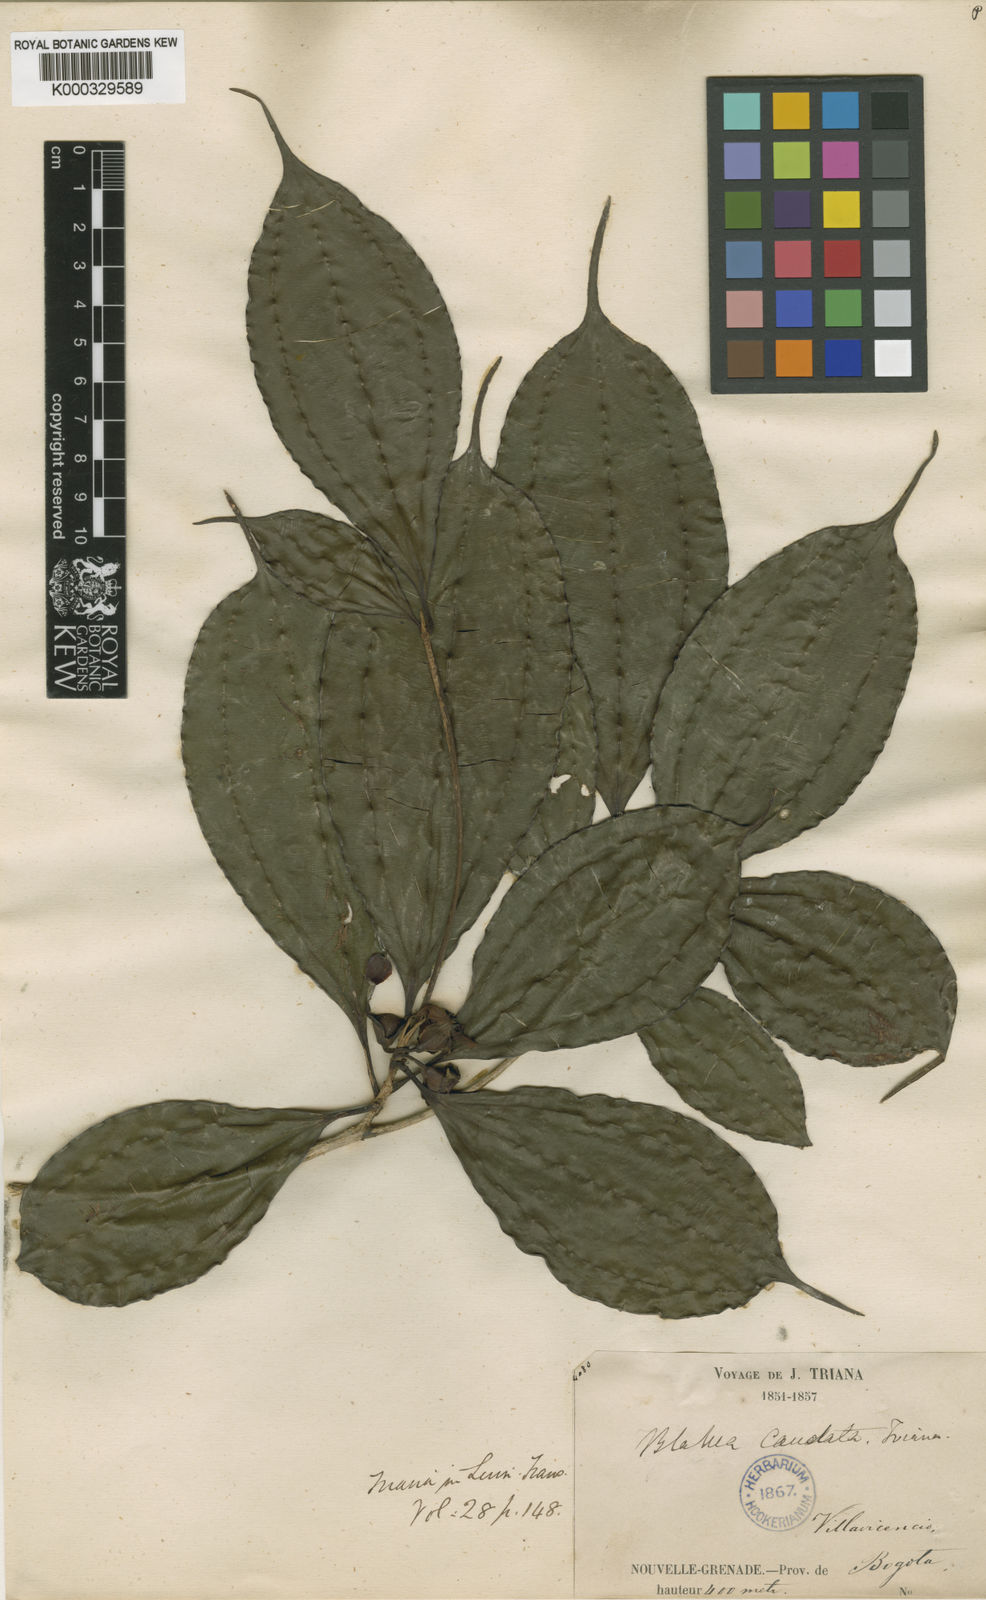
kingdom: Plantae
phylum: Tracheophyta
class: Magnoliopsida
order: Myrtales
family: Melastomataceae
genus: Blakea
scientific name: Blakea rosea
